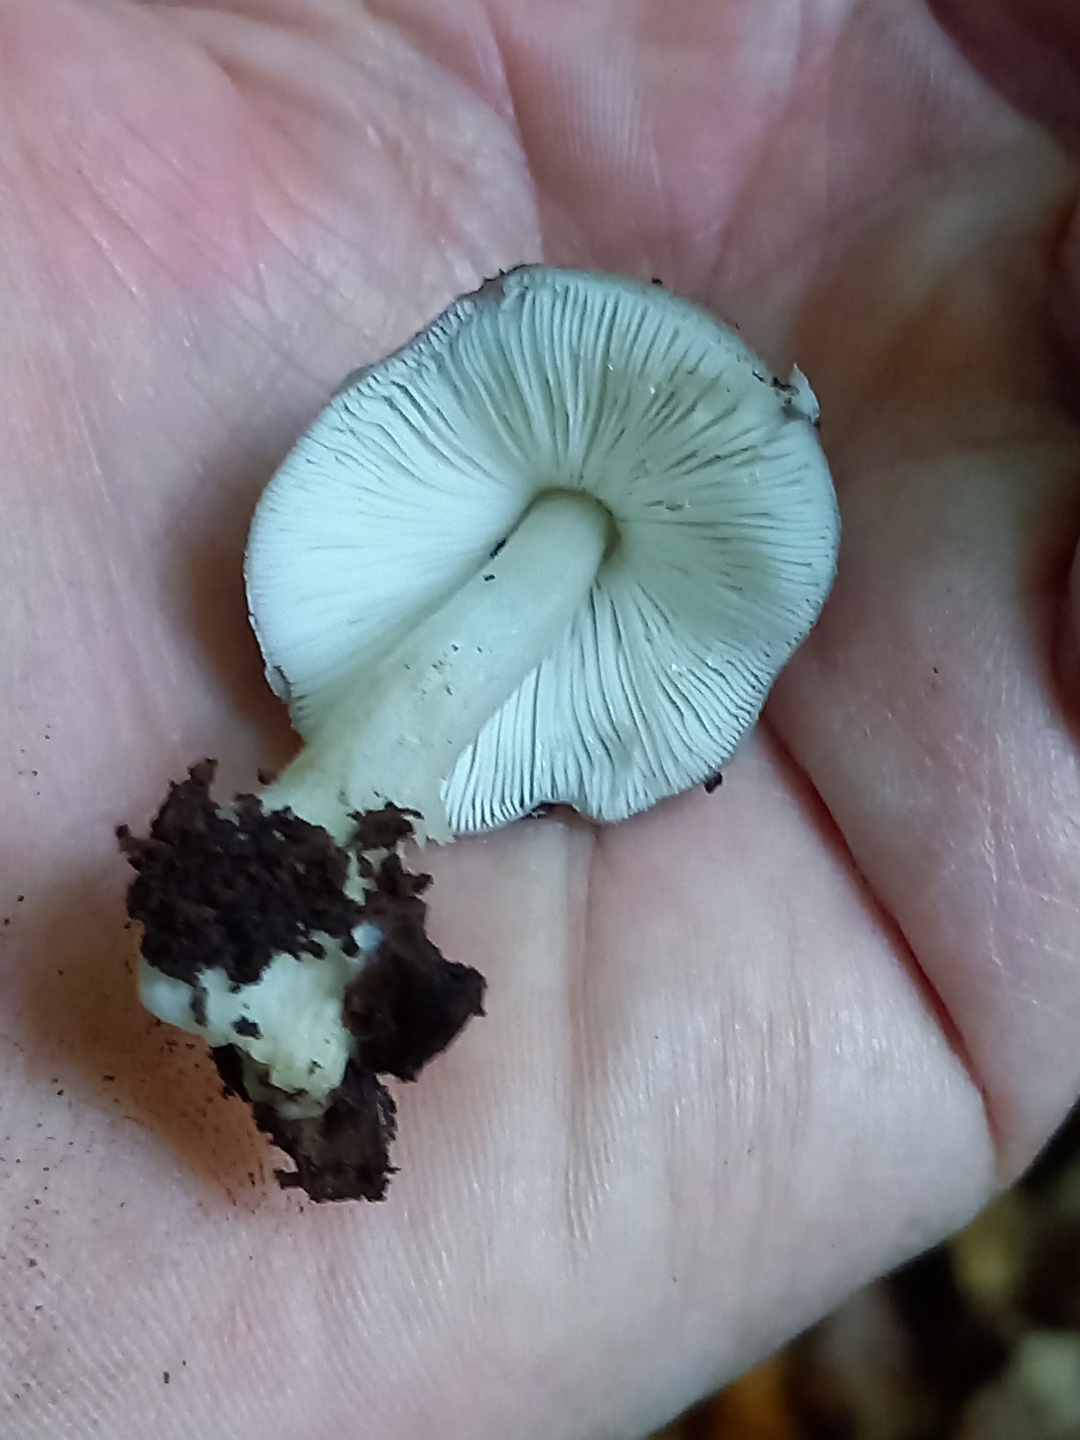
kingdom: Fungi
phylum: Basidiomycota
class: Agaricomycetes
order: Agaricales
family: Pluteaceae
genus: Pluteus
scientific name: Pluteus salicinus
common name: stiv skærmhat
